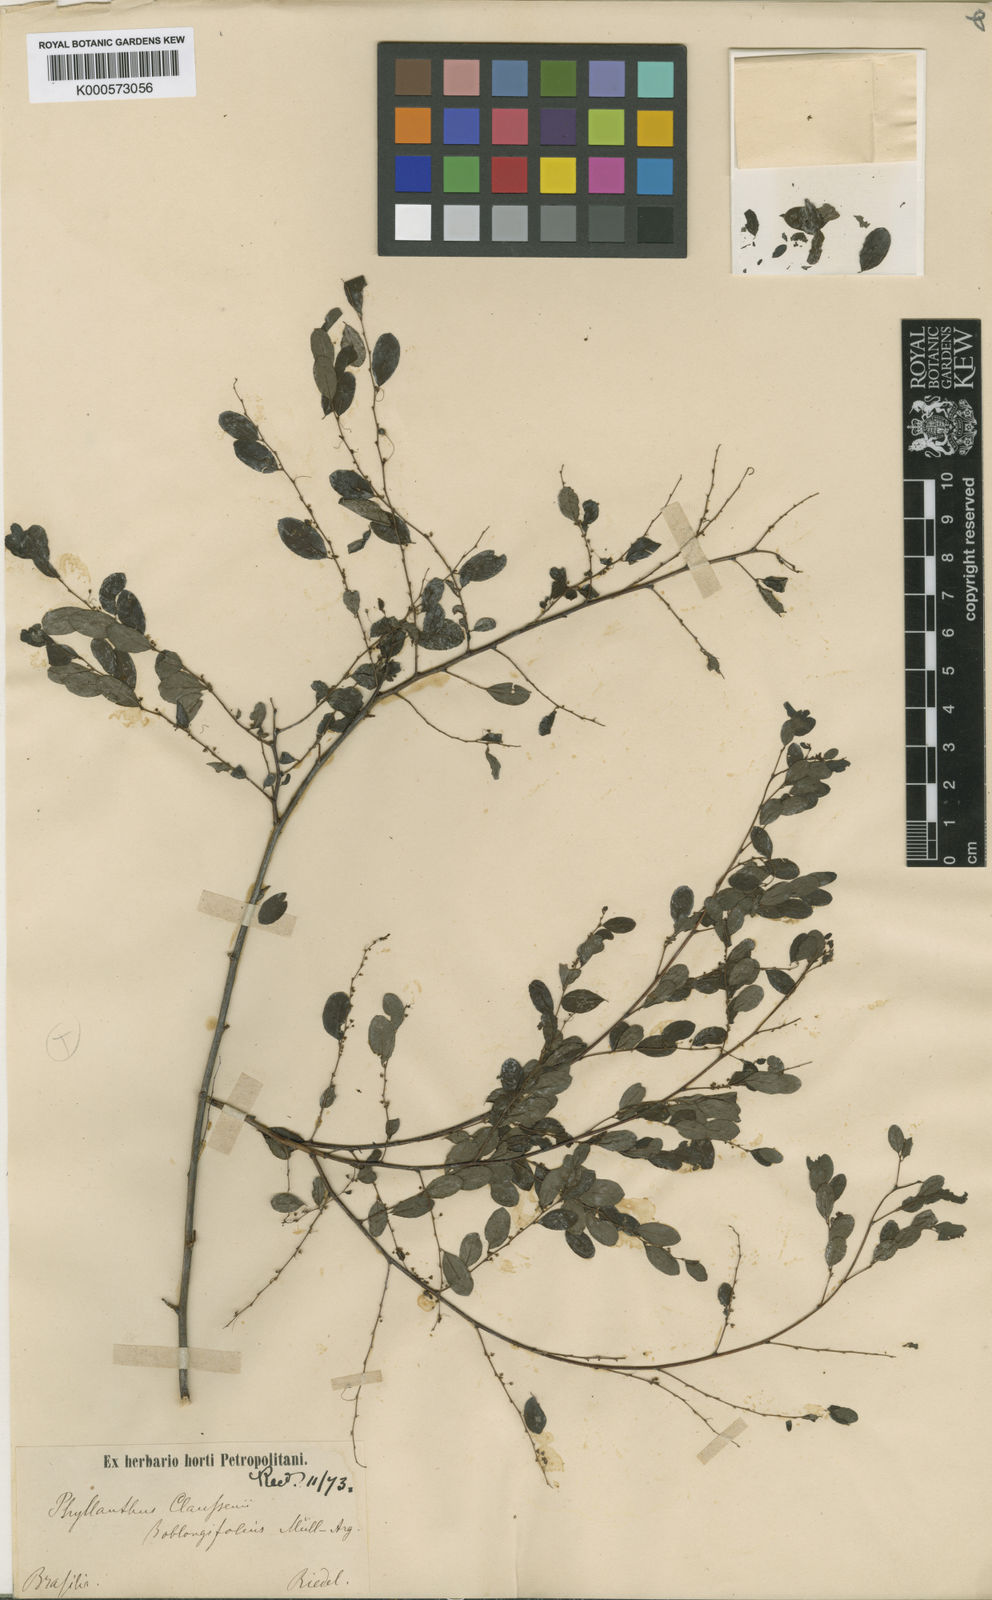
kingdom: Plantae
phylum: Tracheophyta
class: Magnoliopsida
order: Malpighiales
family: Phyllanthaceae
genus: Phyllanthus
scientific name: Phyllanthus
